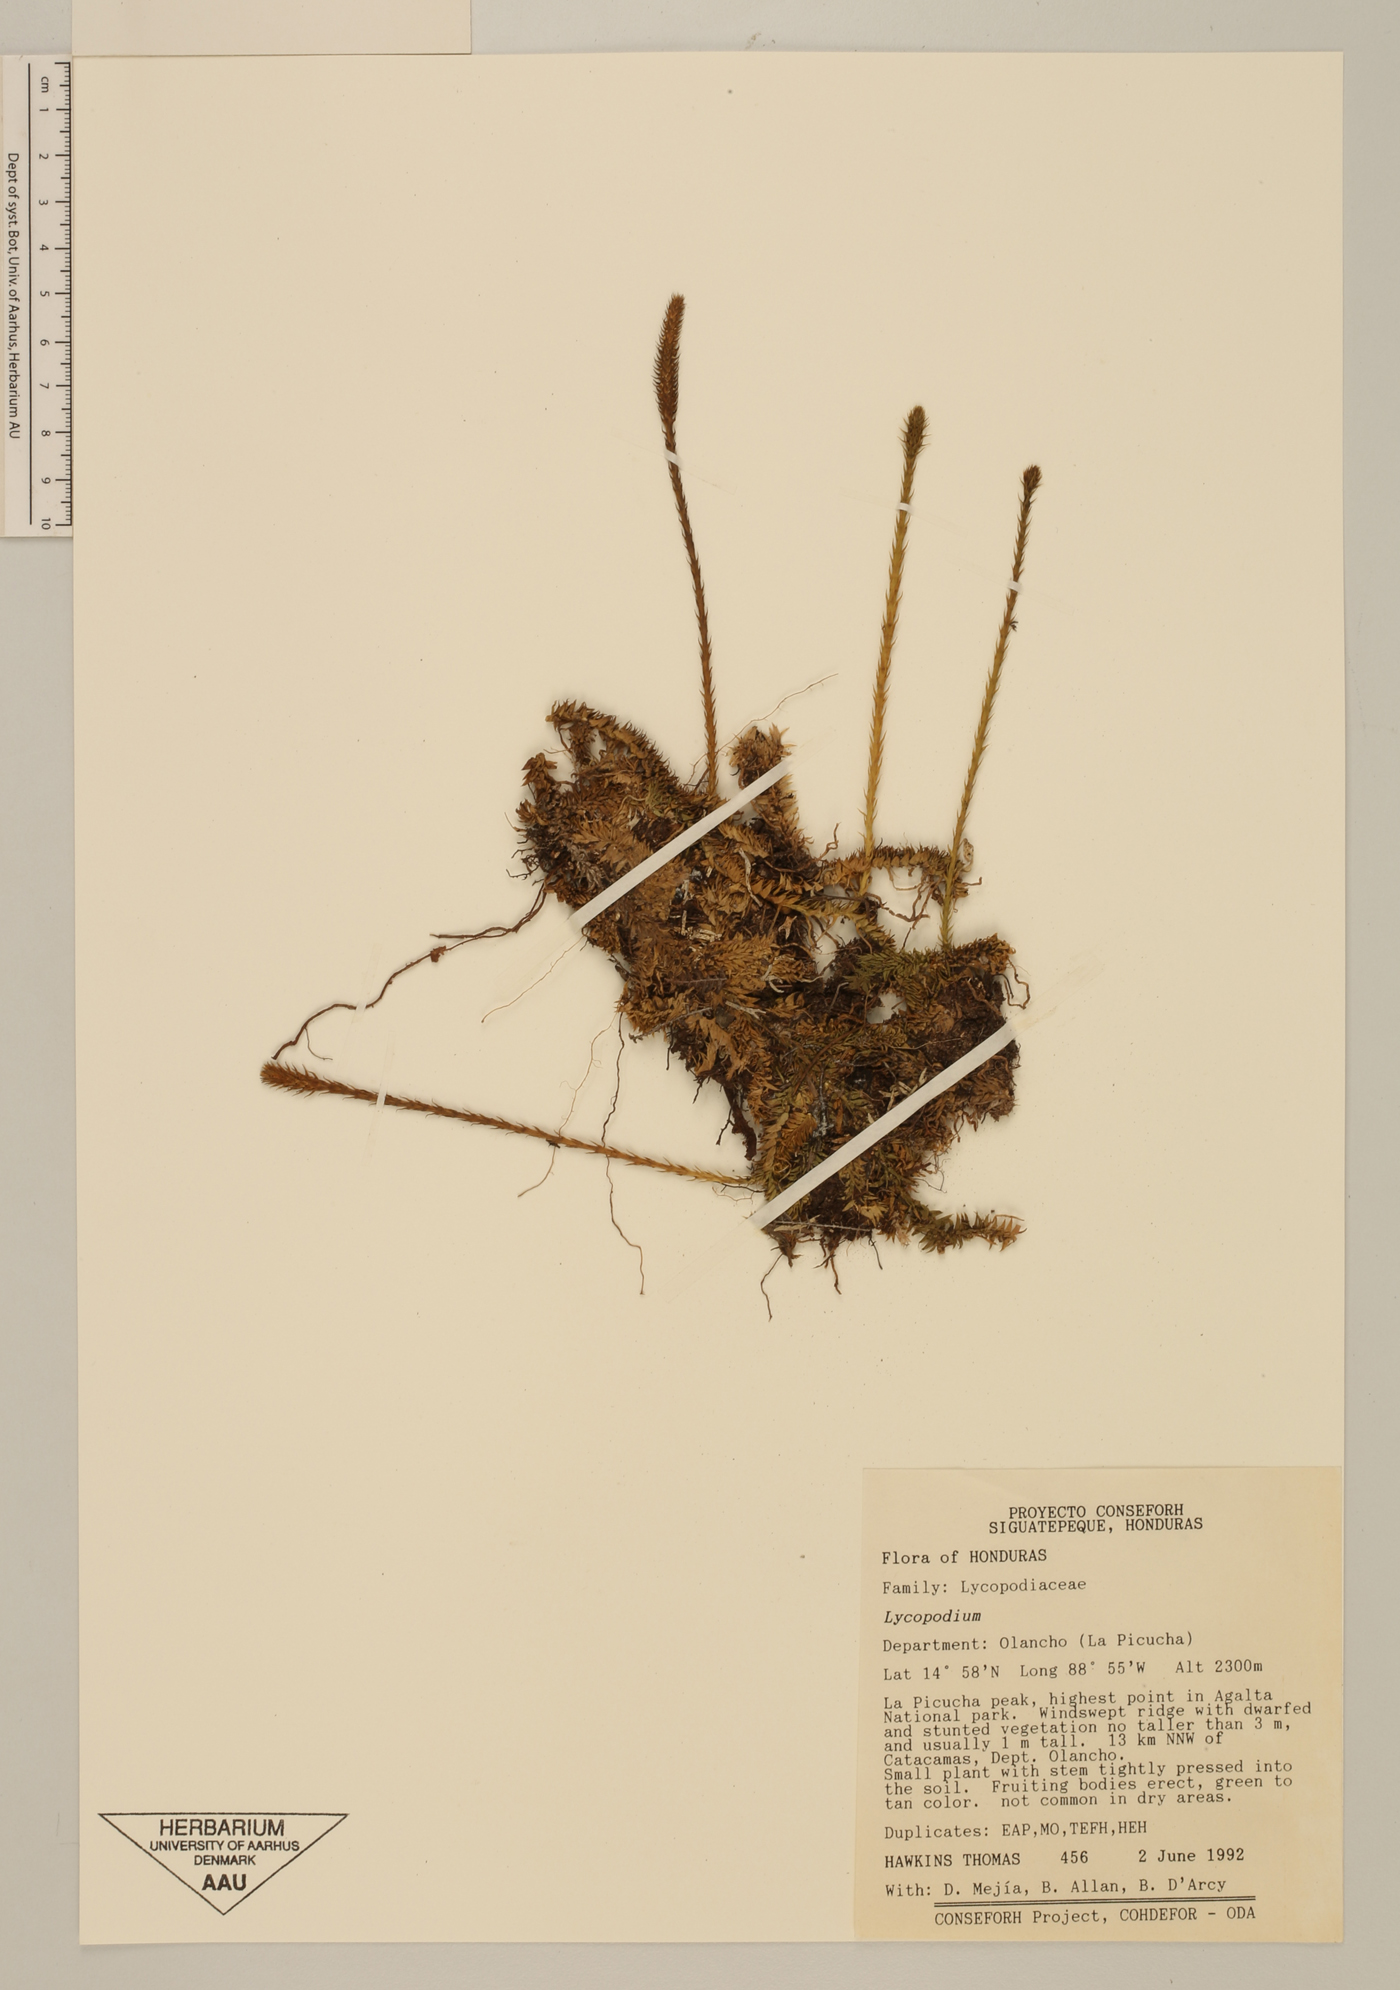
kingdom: Plantae
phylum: Tracheophyta
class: Lycopodiopsida
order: Lycopodiales
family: Lycopodiaceae
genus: Pseudolycopodiella
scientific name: Pseudolycopodiella meridionalis
